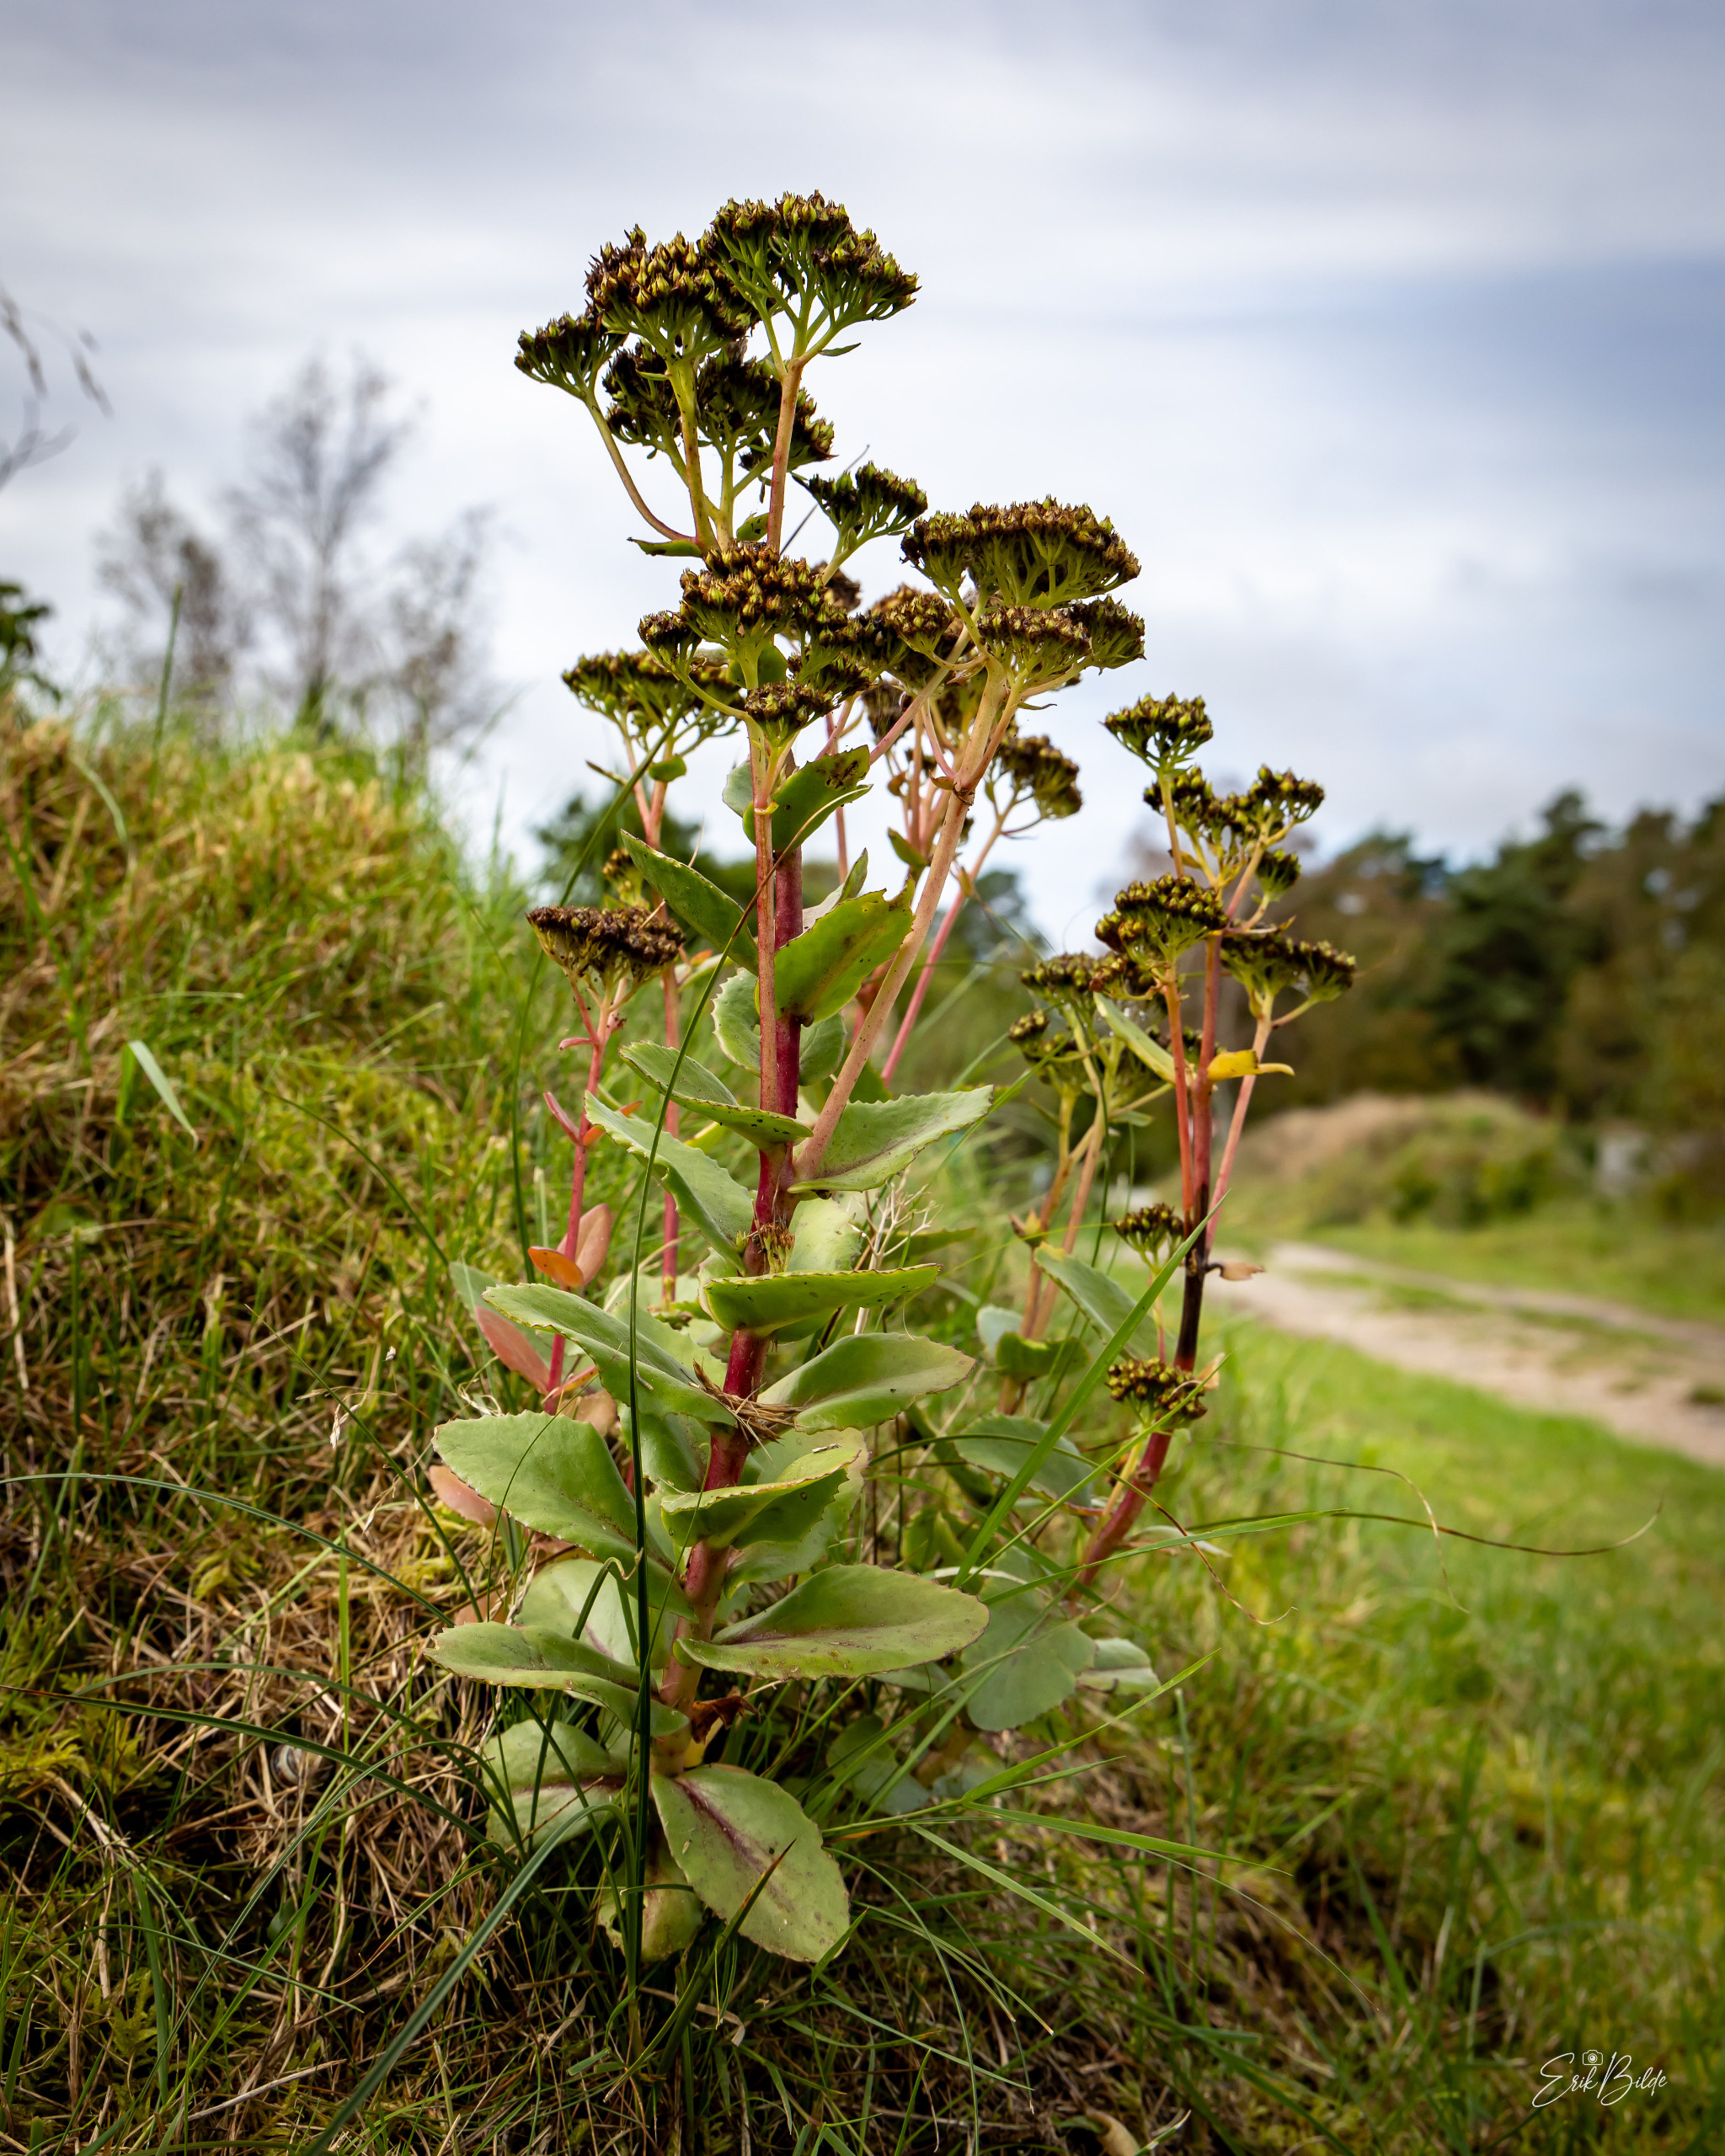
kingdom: Plantae
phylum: Tracheophyta
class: Magnoliopsida
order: Saxifragales
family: Crassulaceae
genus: Hylotelephium
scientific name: Hylotelephium telephium
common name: Sankthansurt
